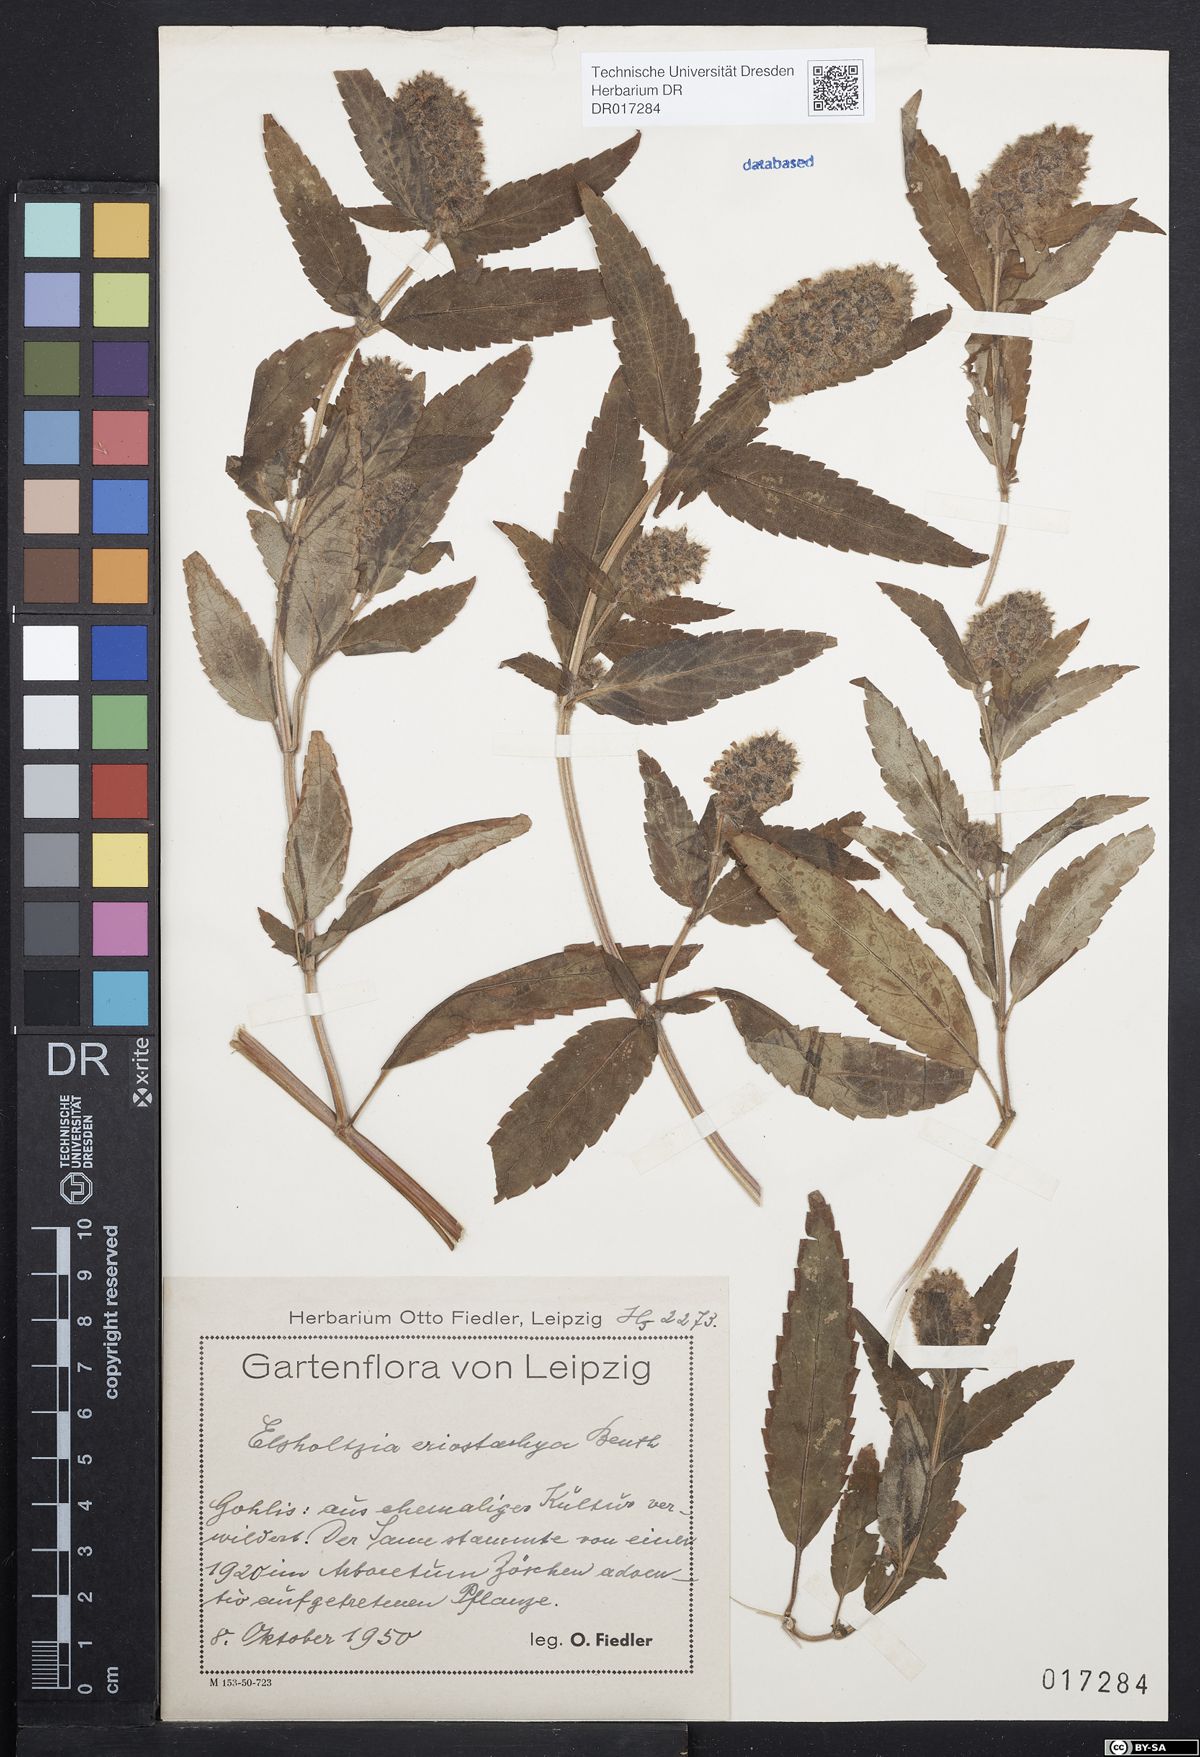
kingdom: Plantae
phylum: Tracheophyta
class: Magnoliopsida
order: Lamiales
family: Lamiaceae
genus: Elsholtzia
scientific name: Elsholtzia ciliata
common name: Ciliate elsholtzia
